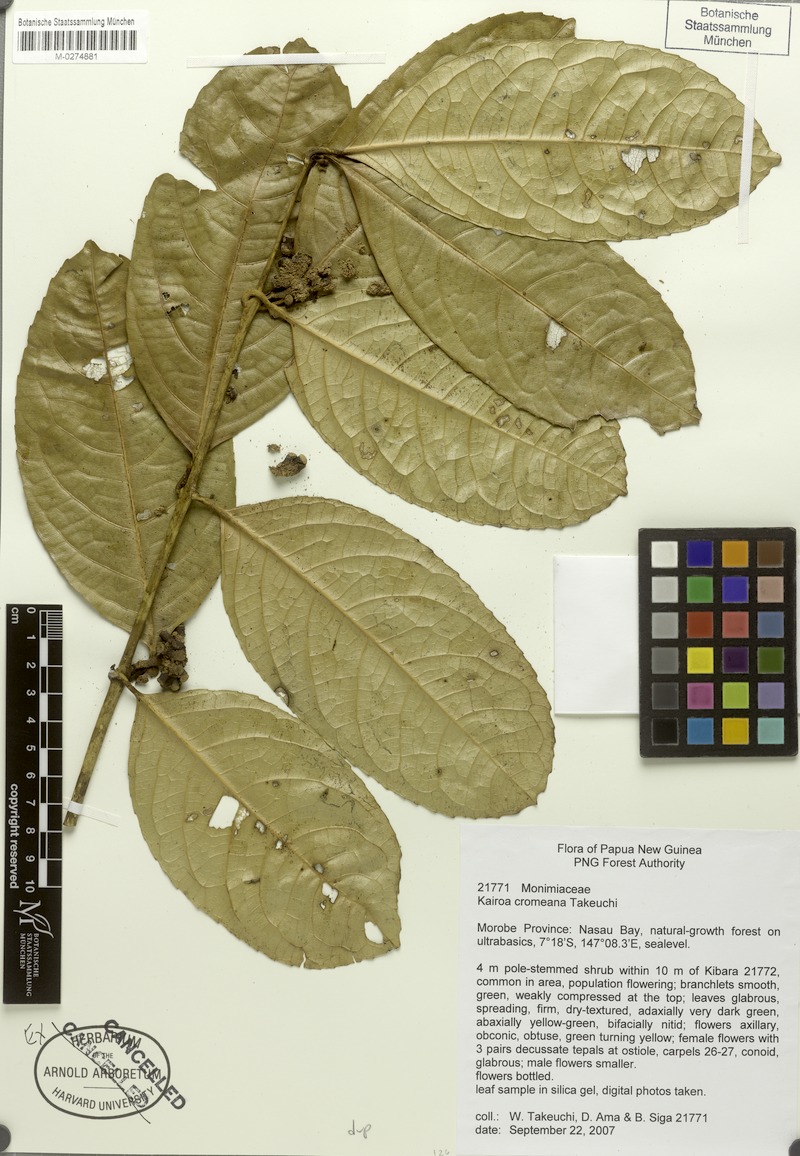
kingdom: Plantae
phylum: Tracheophyta
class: Magnoliopsida
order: Laurales
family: Monimiaceae
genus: Kairoa
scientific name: Kairoa cromeana
